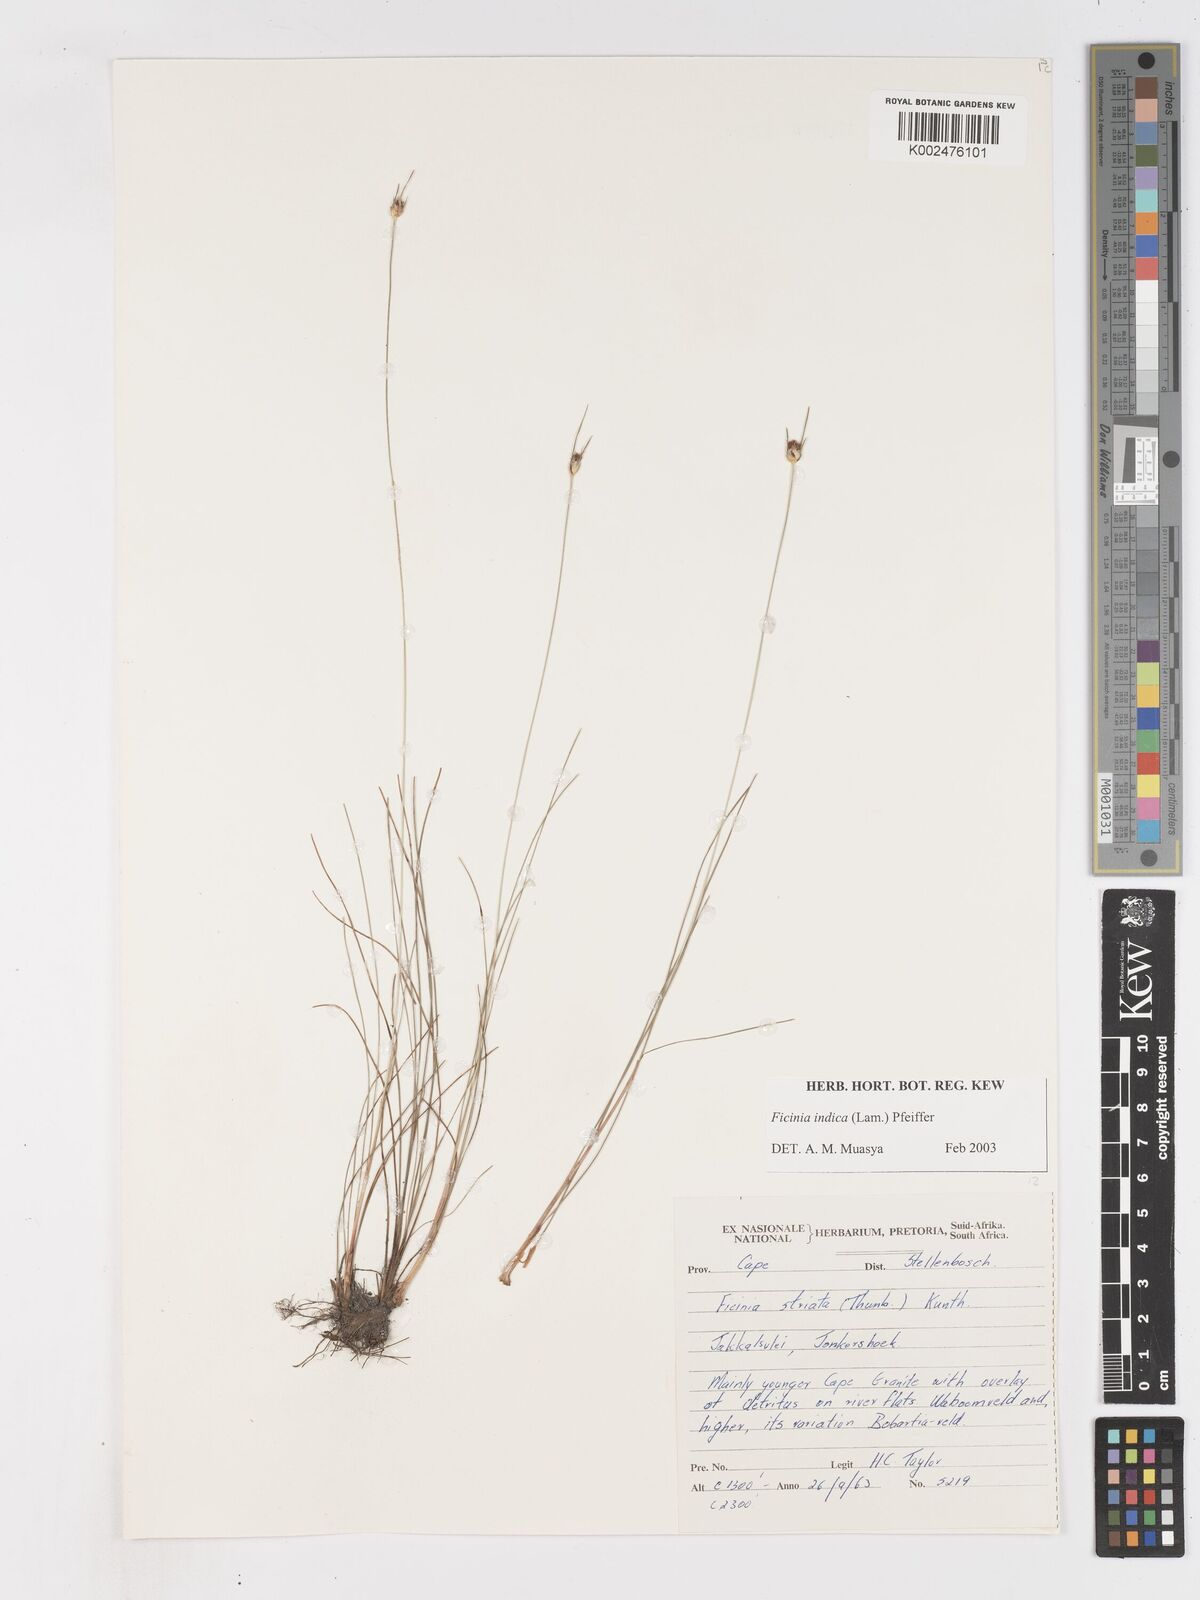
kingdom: Plantae
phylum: Tracheophyta
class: Liliopsida
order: Poales
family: Cyperaceae
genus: Ficinia
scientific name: Ficinia indica
